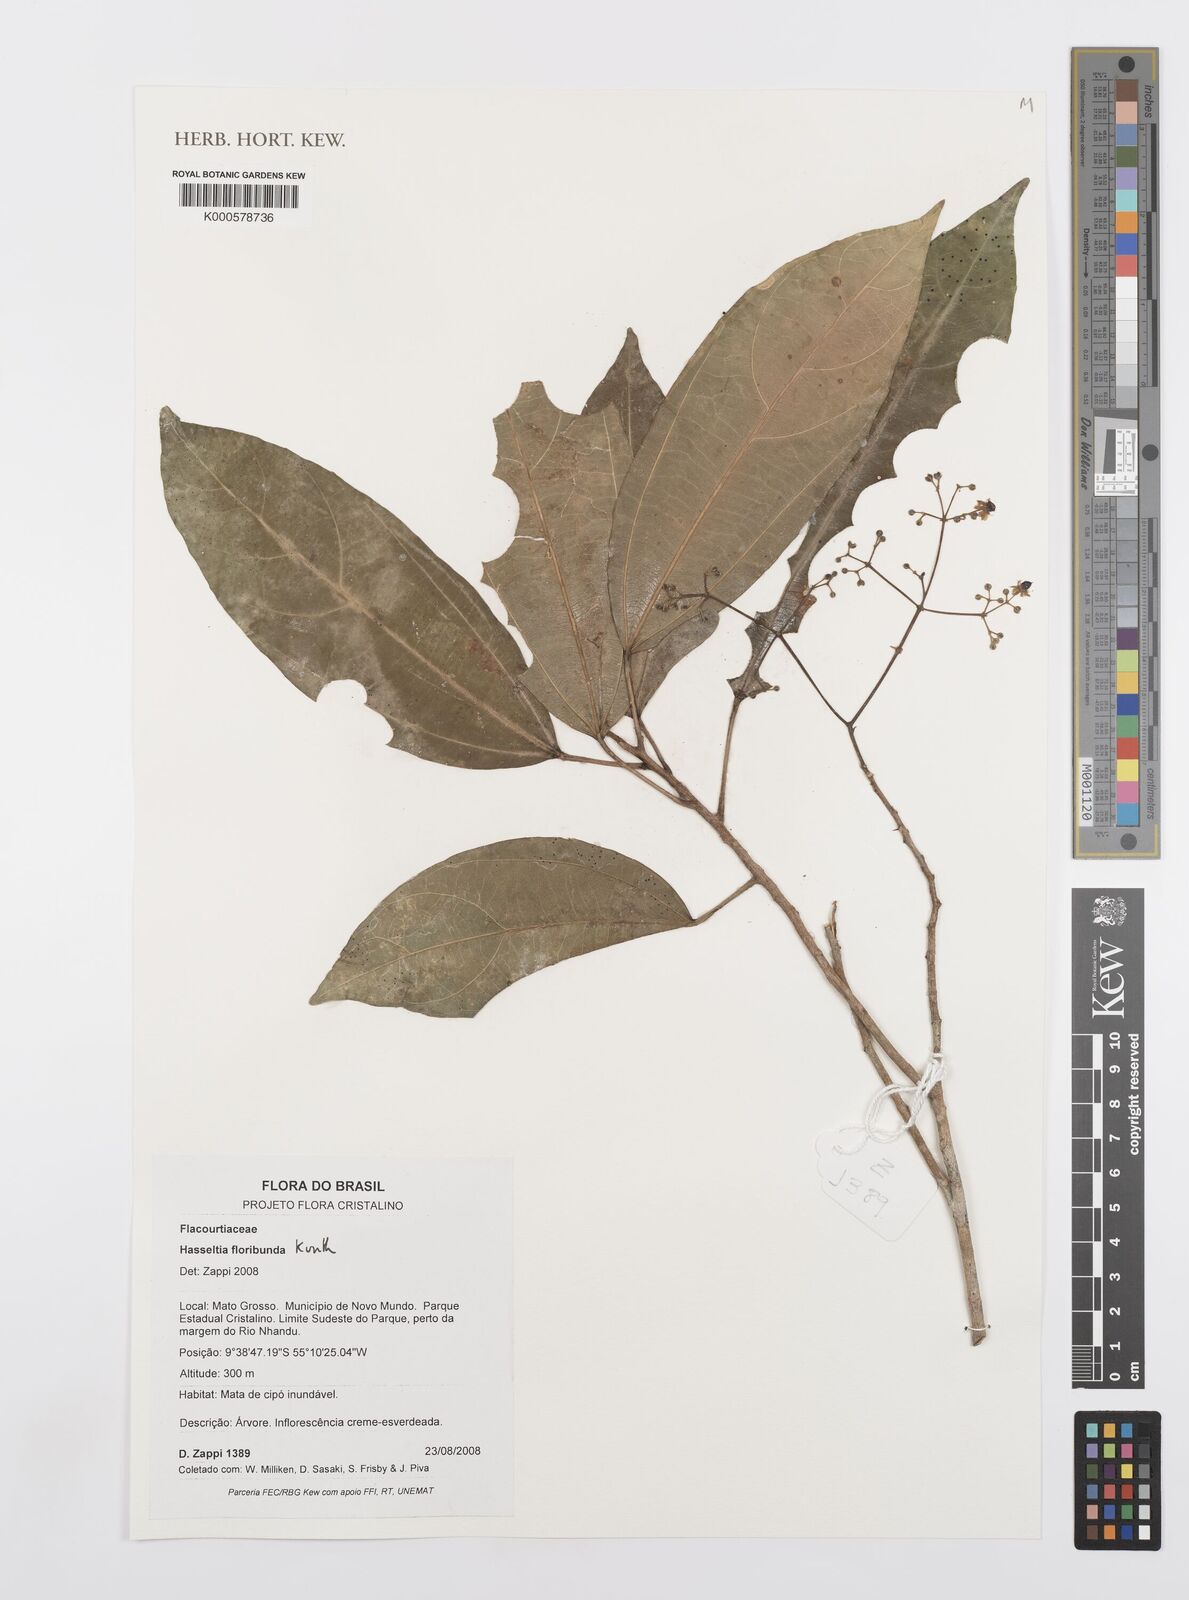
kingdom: Plantae
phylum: Tracheophyta
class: Magnoliopsida
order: Malpighiales
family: Salicaceae
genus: Hasseltia
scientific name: Hasseltia floribunda
